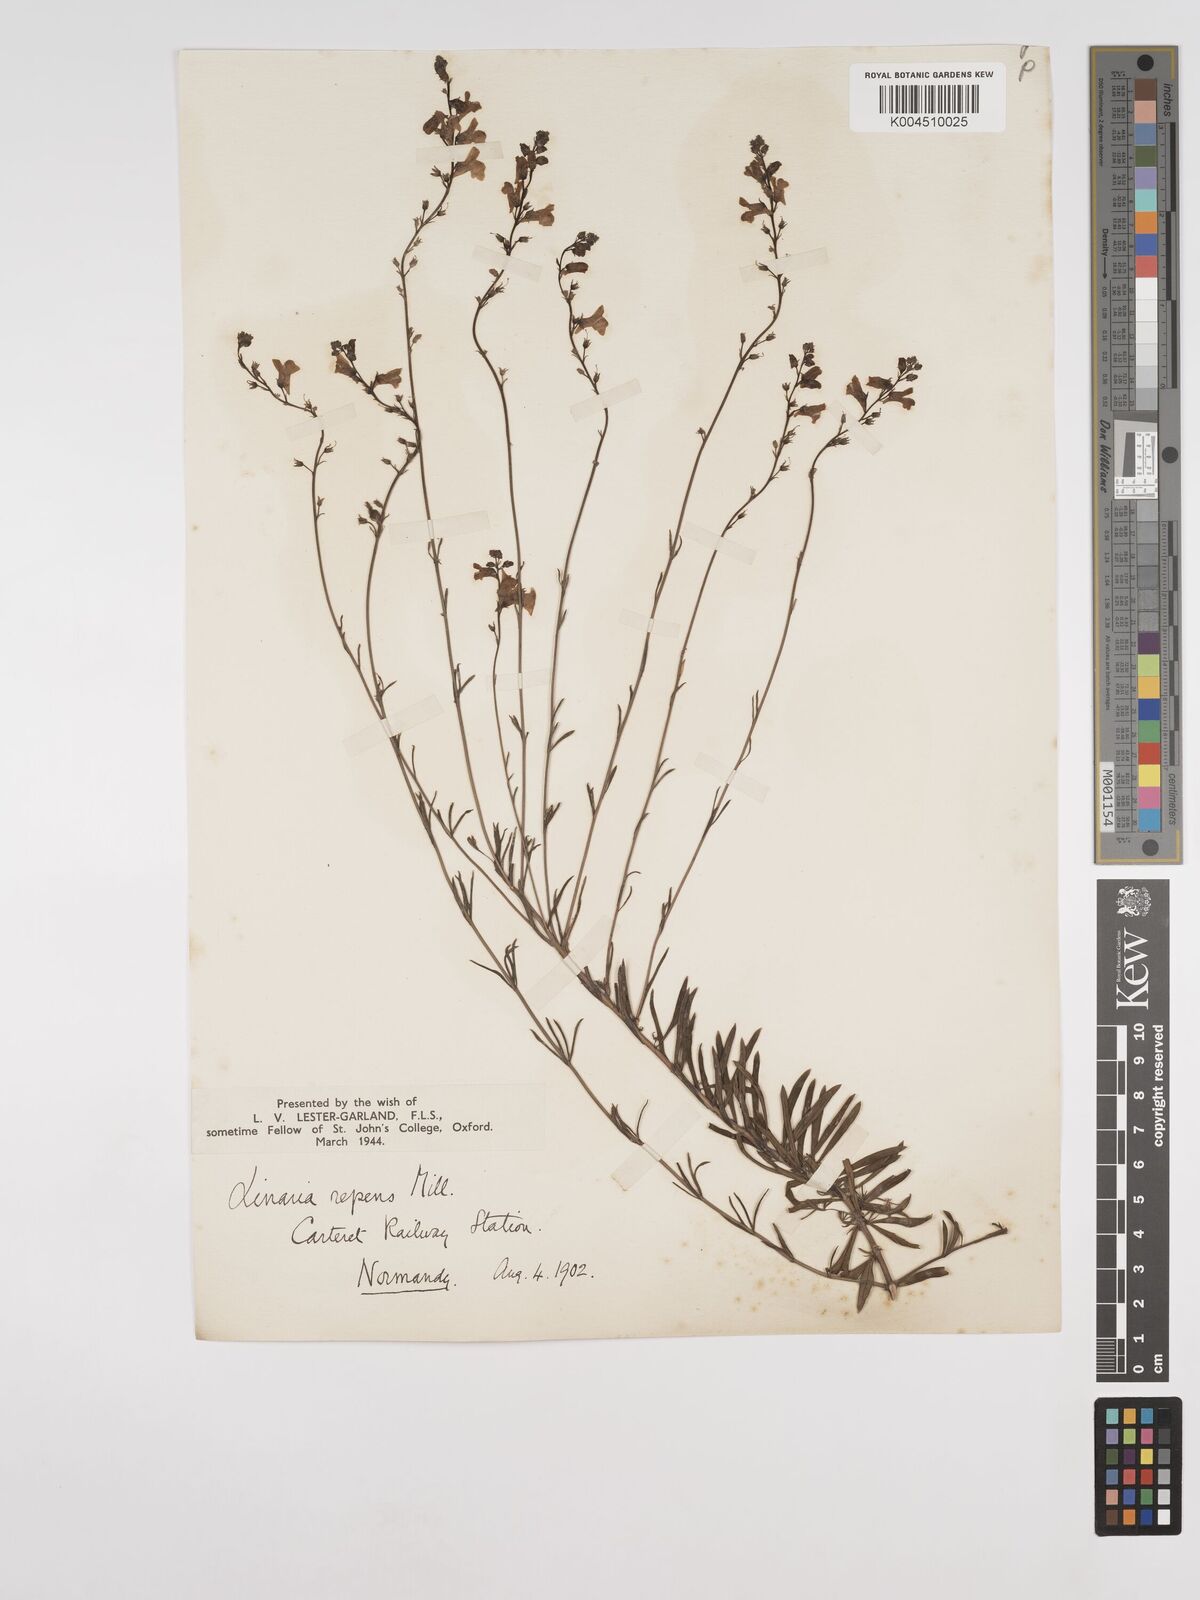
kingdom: Plantae
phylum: Tracheophyta
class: Magnoliopsida
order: Lamiales
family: Plantaginaceae
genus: Linaria
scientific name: Linaria repens
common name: Pale toadflax
